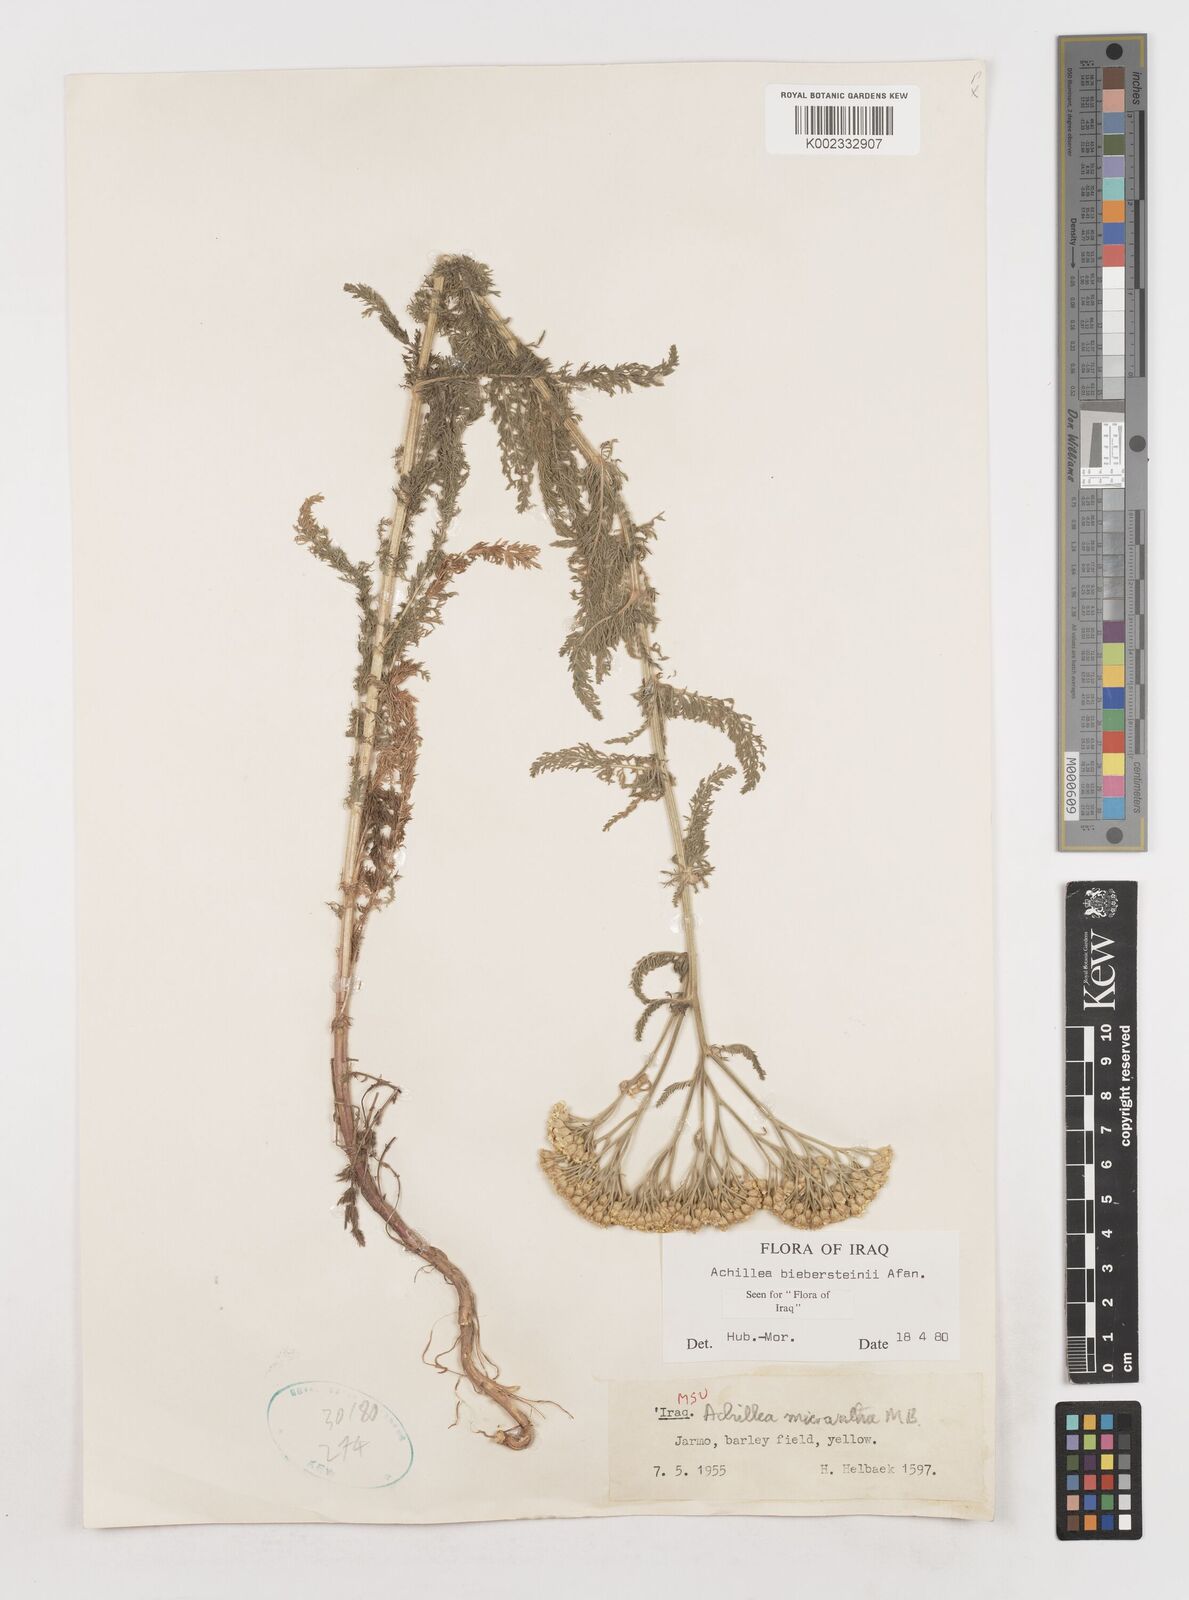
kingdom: Plantae
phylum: Tracheophyta
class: Magnoliopsida
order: Asterales
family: Asteraceae
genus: Achillea
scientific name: Achillea arabica
